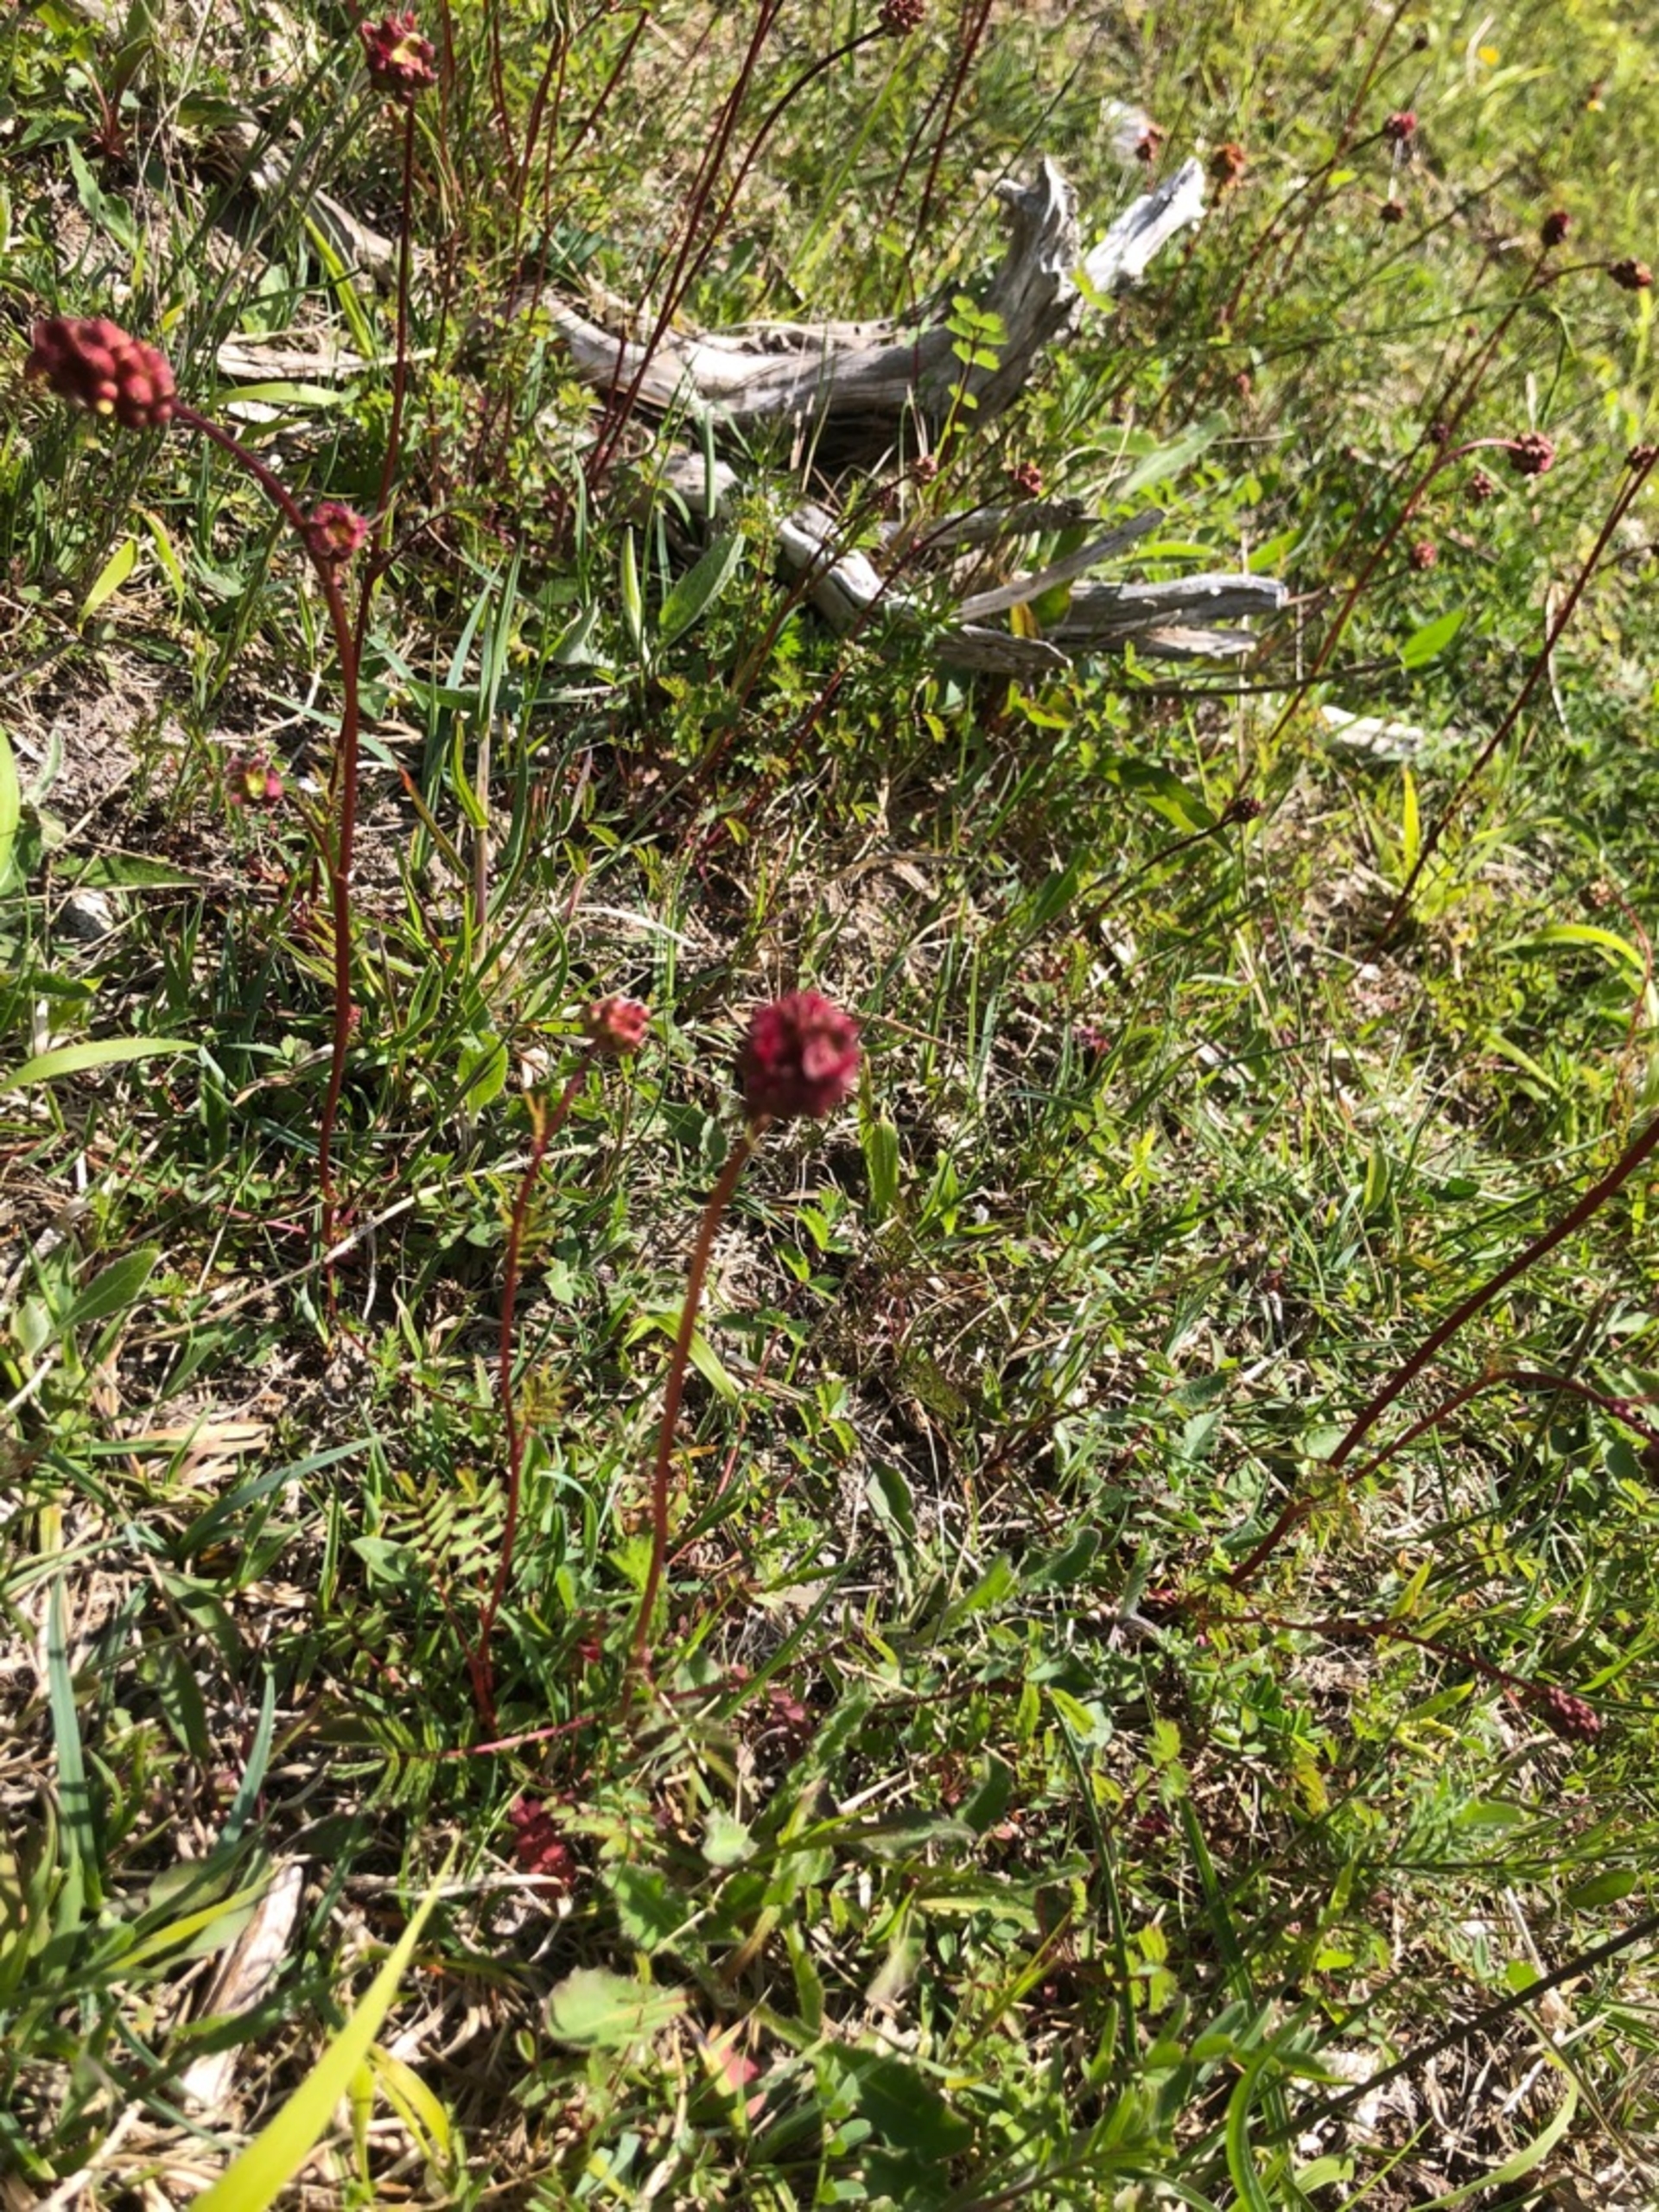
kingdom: Plantae
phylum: Tracheophyta
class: Magnoliopsida
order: Rosales
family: Rosaceae
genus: Poterium
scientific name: Poterium sanguisorba
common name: Bibernelle
